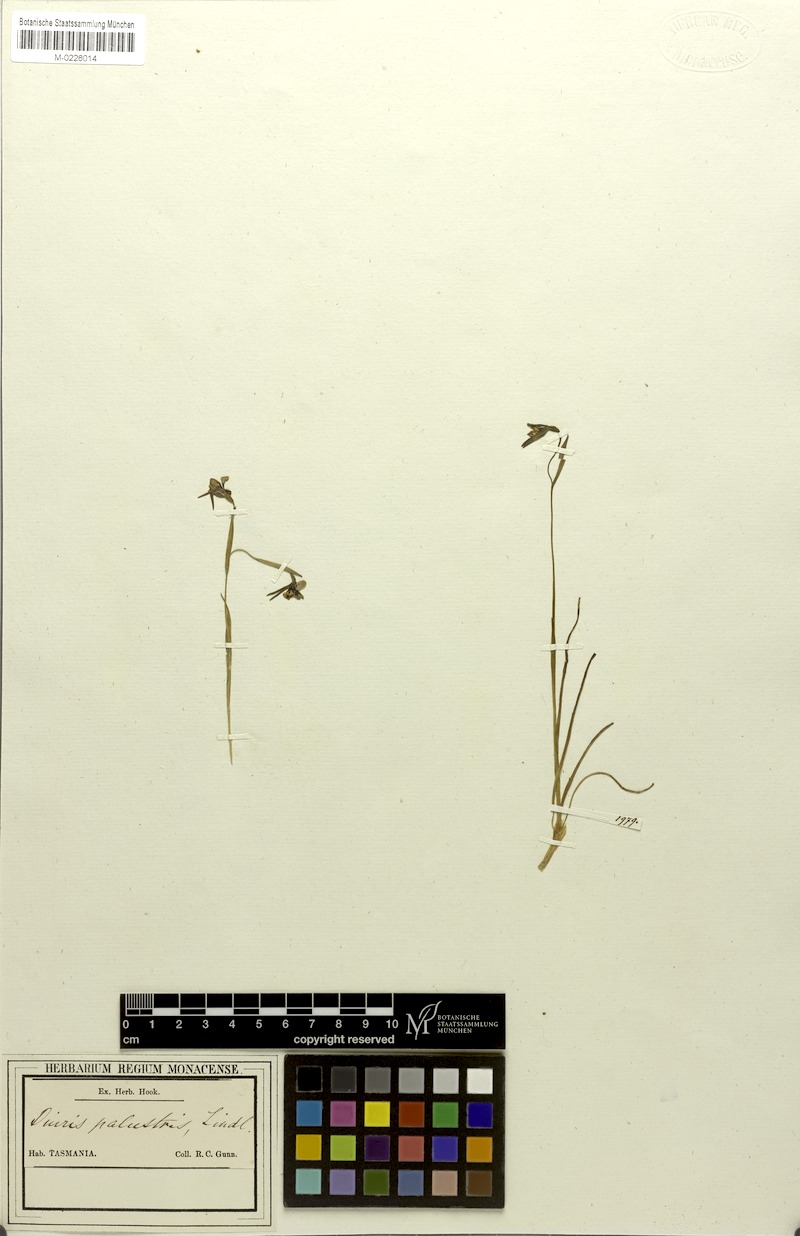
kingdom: Plantae
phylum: Tracheophyta
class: Liliopsida
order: Asparagales
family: Orchidaceae
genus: Diuris
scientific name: Diuris palustris
